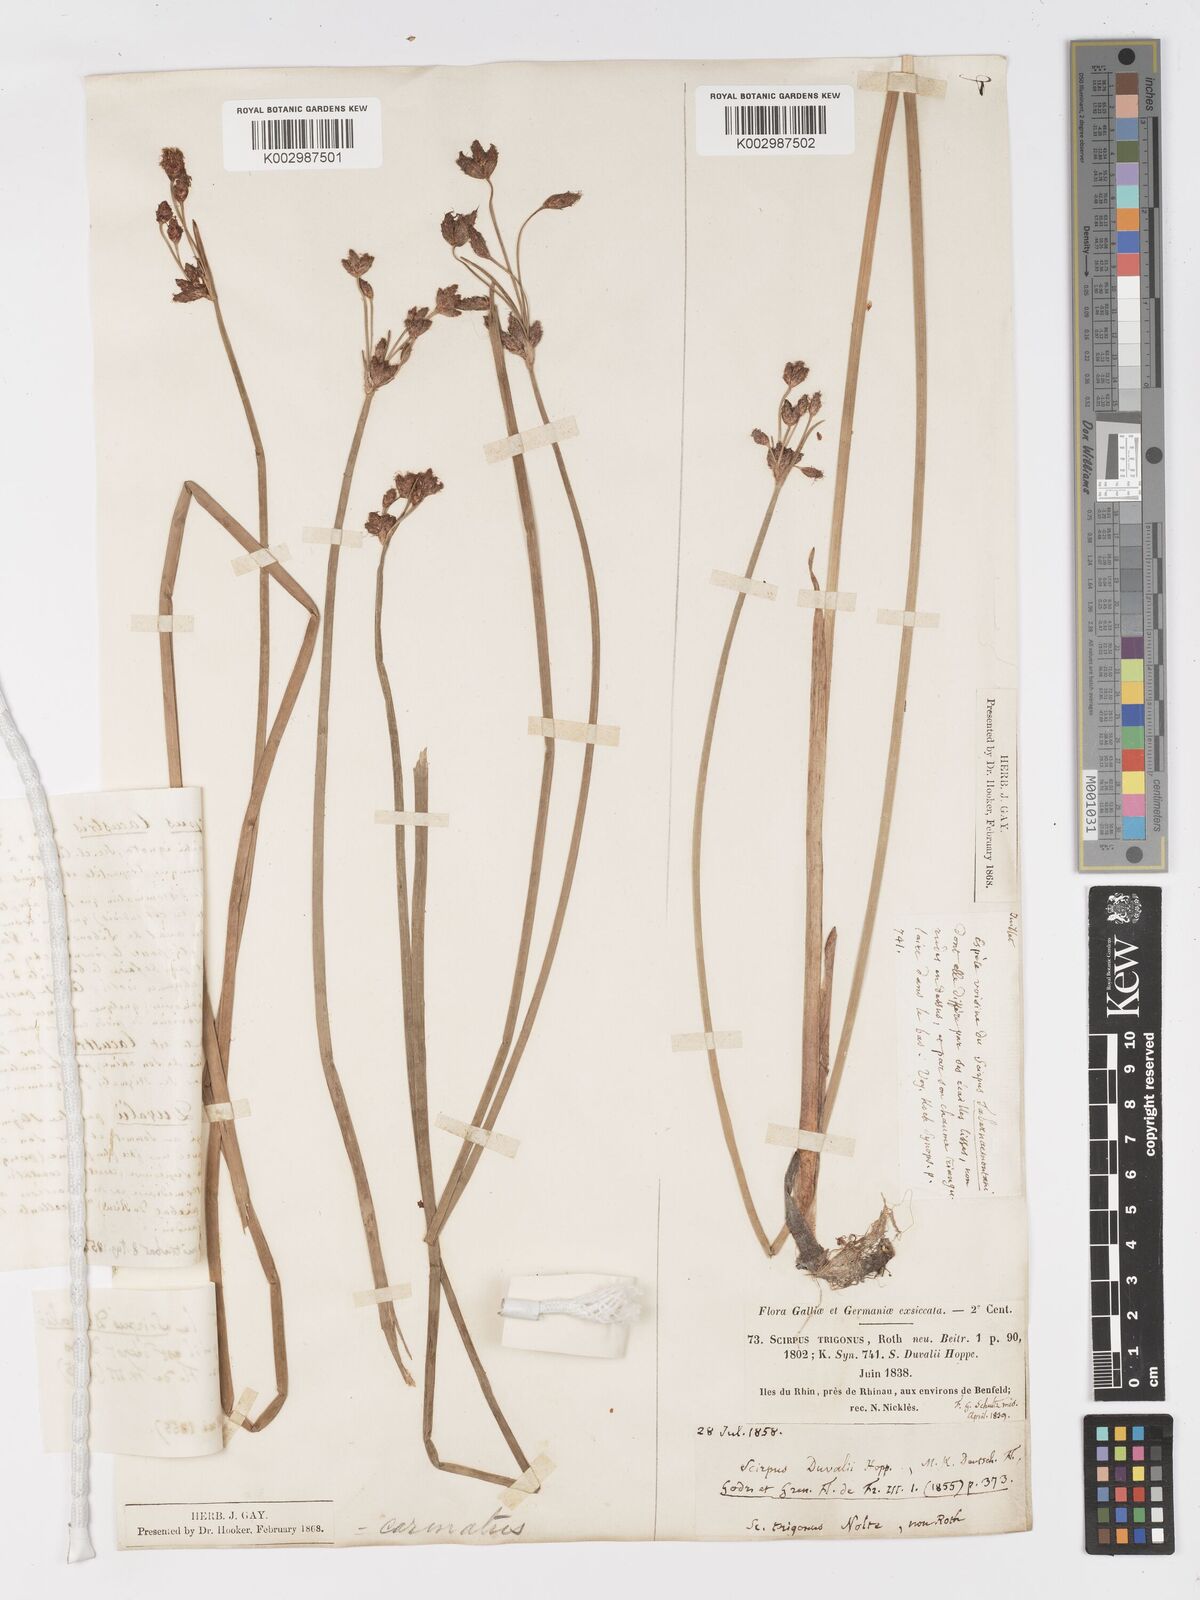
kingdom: Plantae
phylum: Tracheophyta
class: Liliopsida
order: Poales
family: Cyperaceae
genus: Schoenoplectus
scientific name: Schoenoplectus lacustris
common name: Common club-rush
